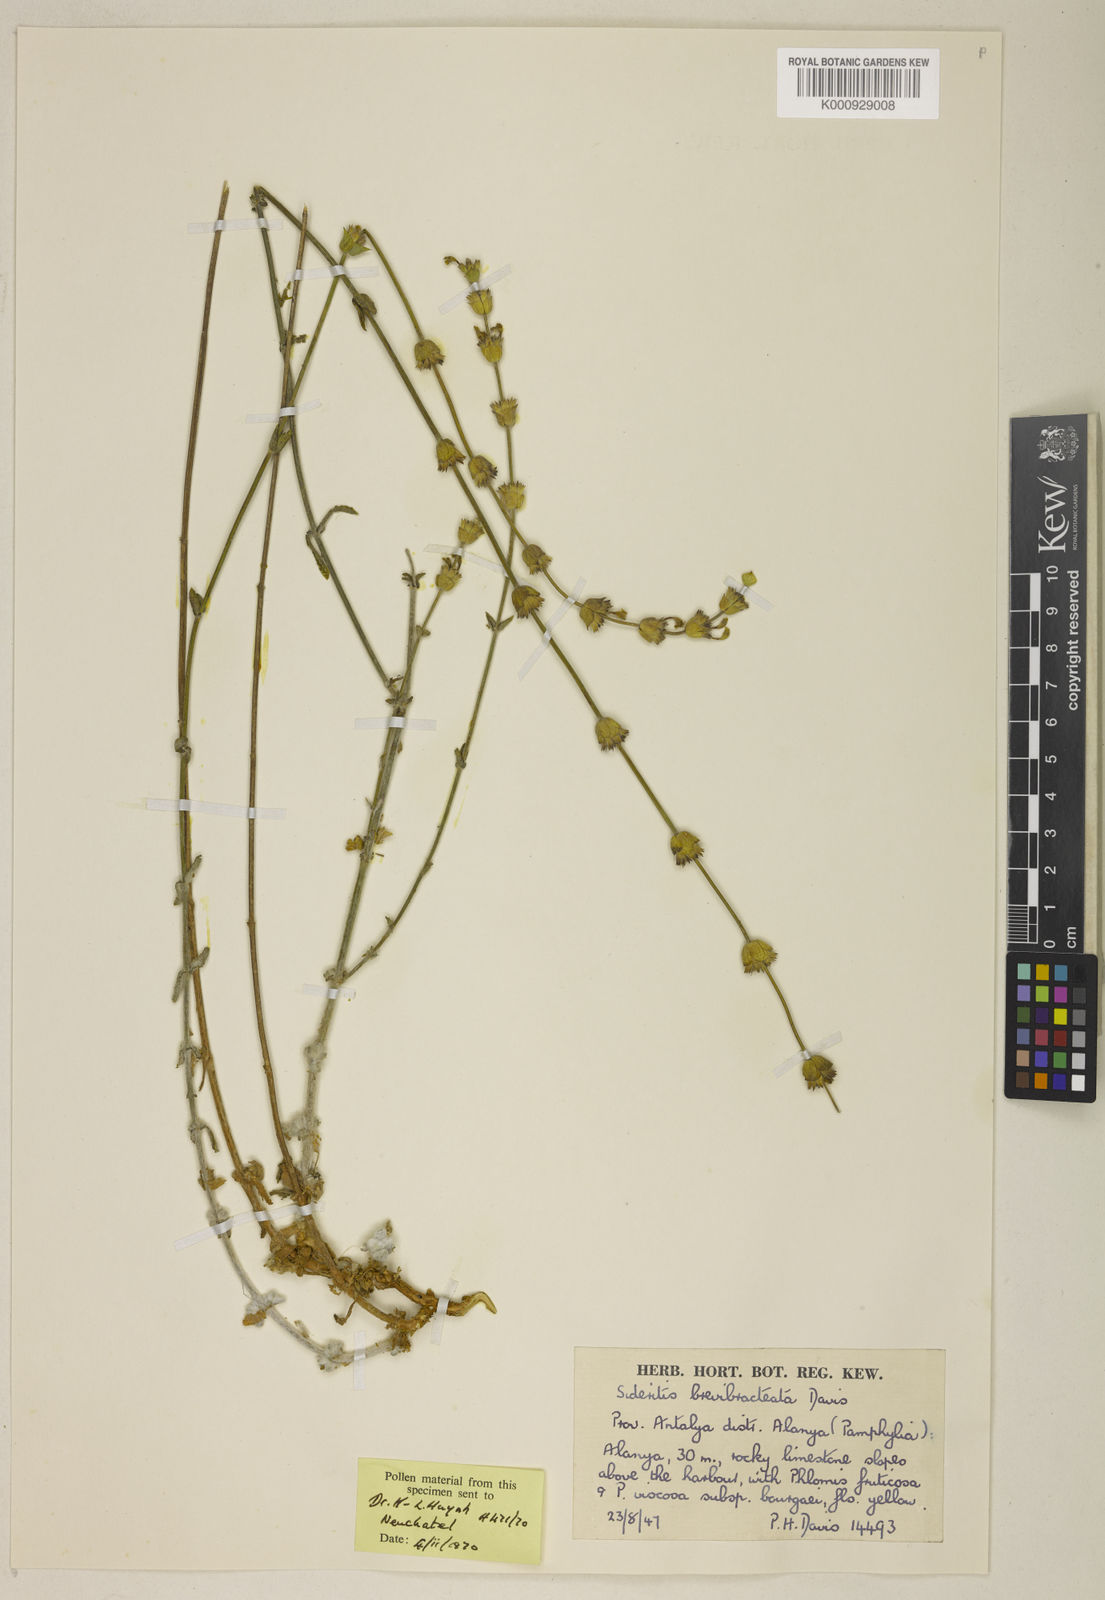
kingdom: Plantae
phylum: Tracheophyta
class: Magnoliopsida
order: Lamiales
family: Lamiaceae
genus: Sideritis
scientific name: Sideritis brevibracteata
